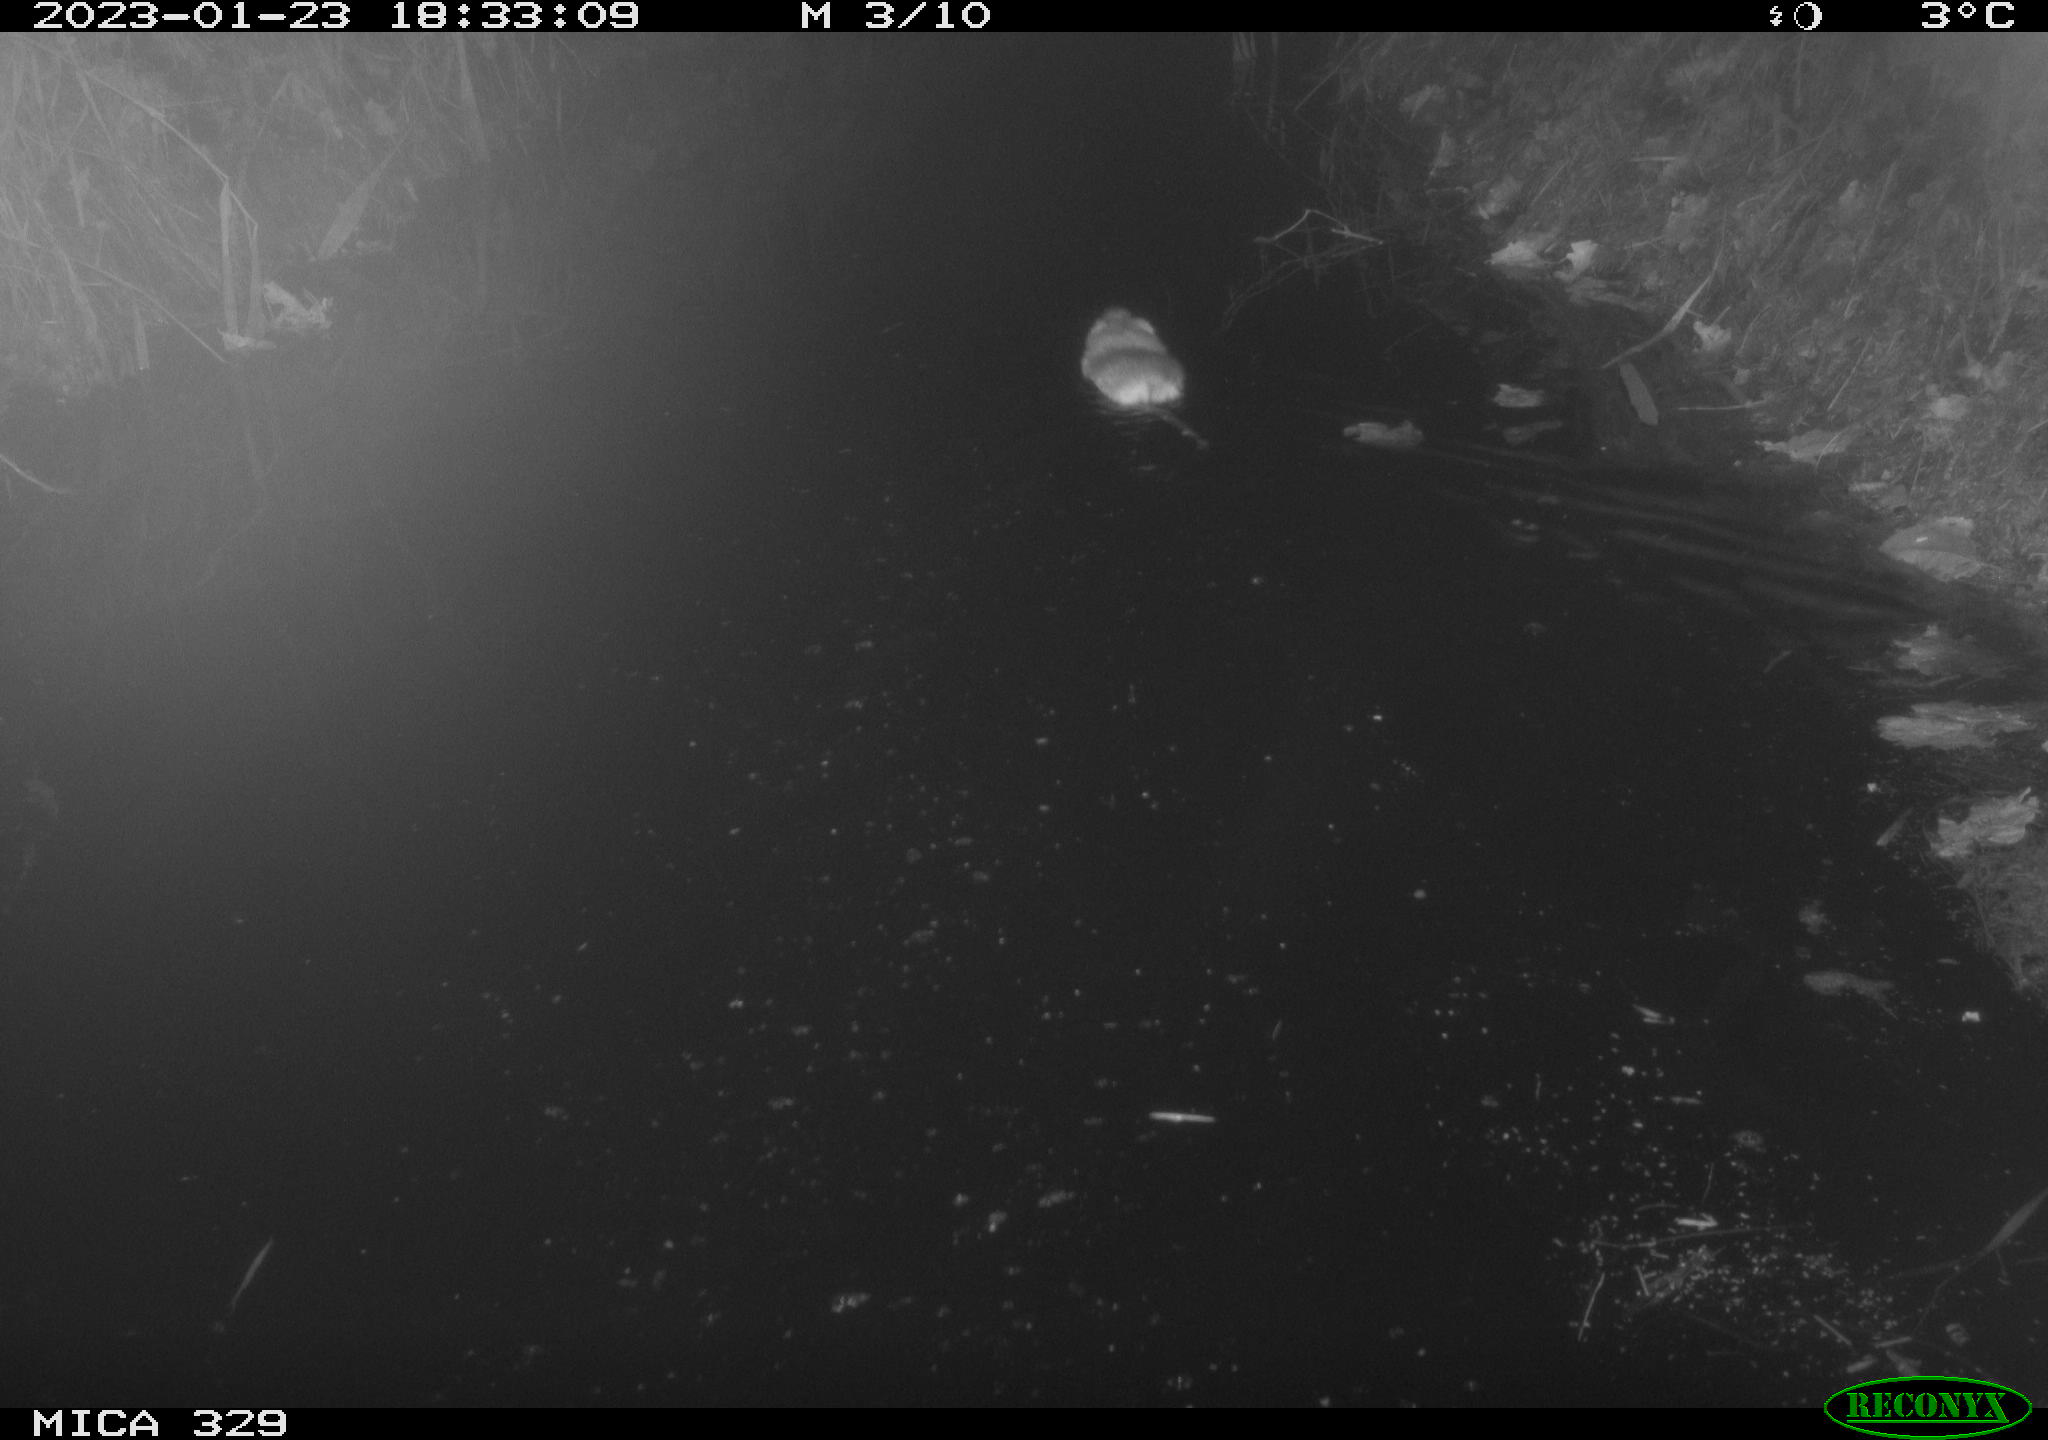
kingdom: Animalia
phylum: Chordata
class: Mammalia
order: Rodentia
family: Cricetidae
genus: Ondatra
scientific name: Ondatra zibethicus
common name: Muskrat
